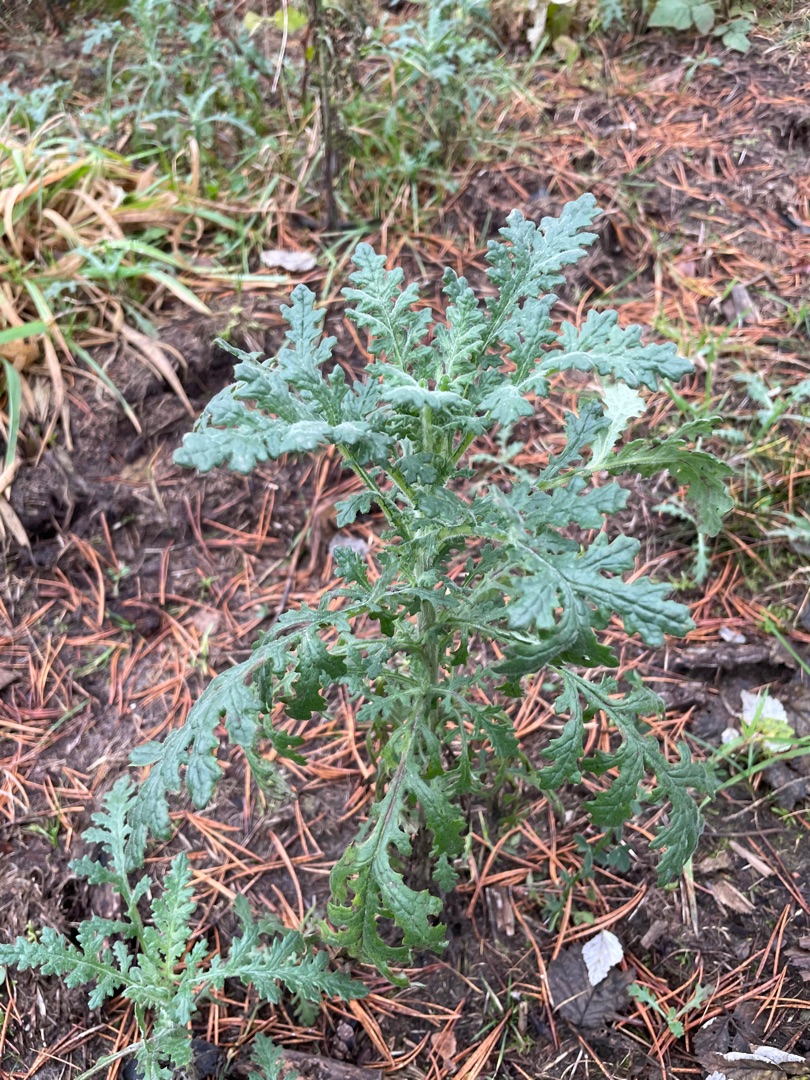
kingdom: Plantae
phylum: Tracheophyta
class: Magnoliopsida
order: Asterales
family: Asteraceae
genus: Senecio
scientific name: Senecio sylvaticus
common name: Skov-brandbæger
